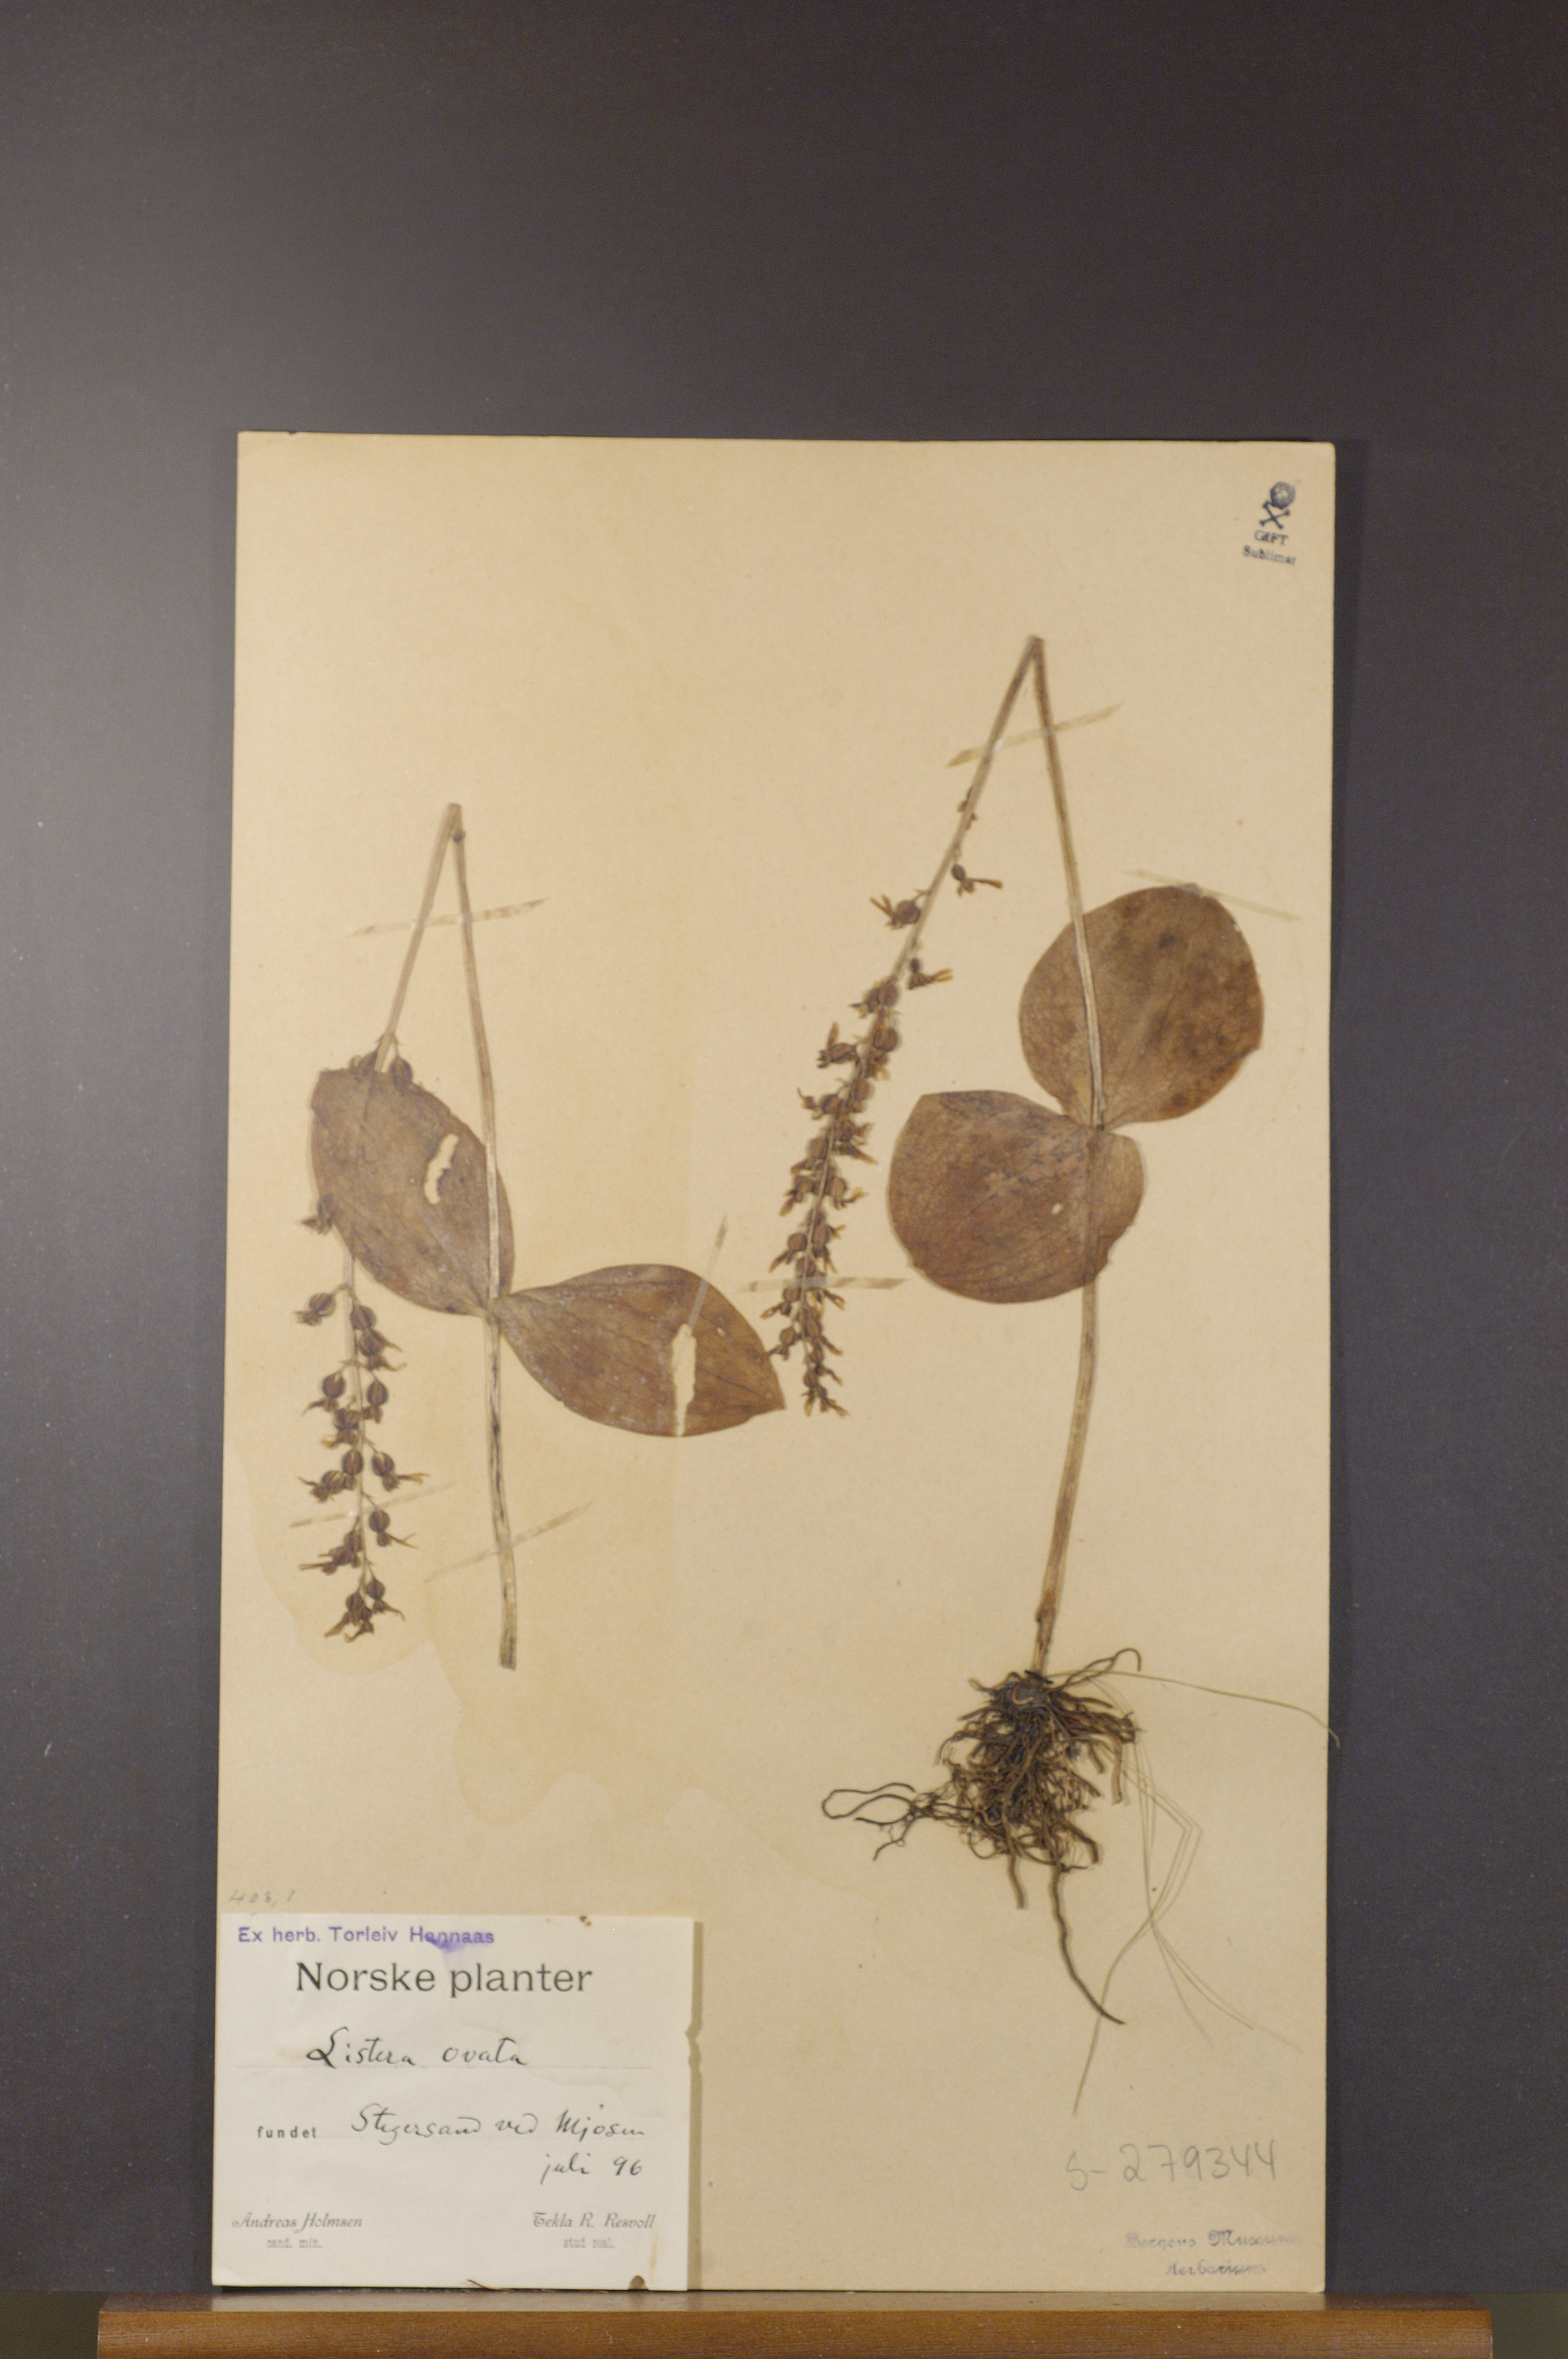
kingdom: Plantae
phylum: Tracheophyta
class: Liliopsida
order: Asparagales
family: Orchidaceae
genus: Neottia
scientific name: Neottia ovata
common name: Common twayblade
